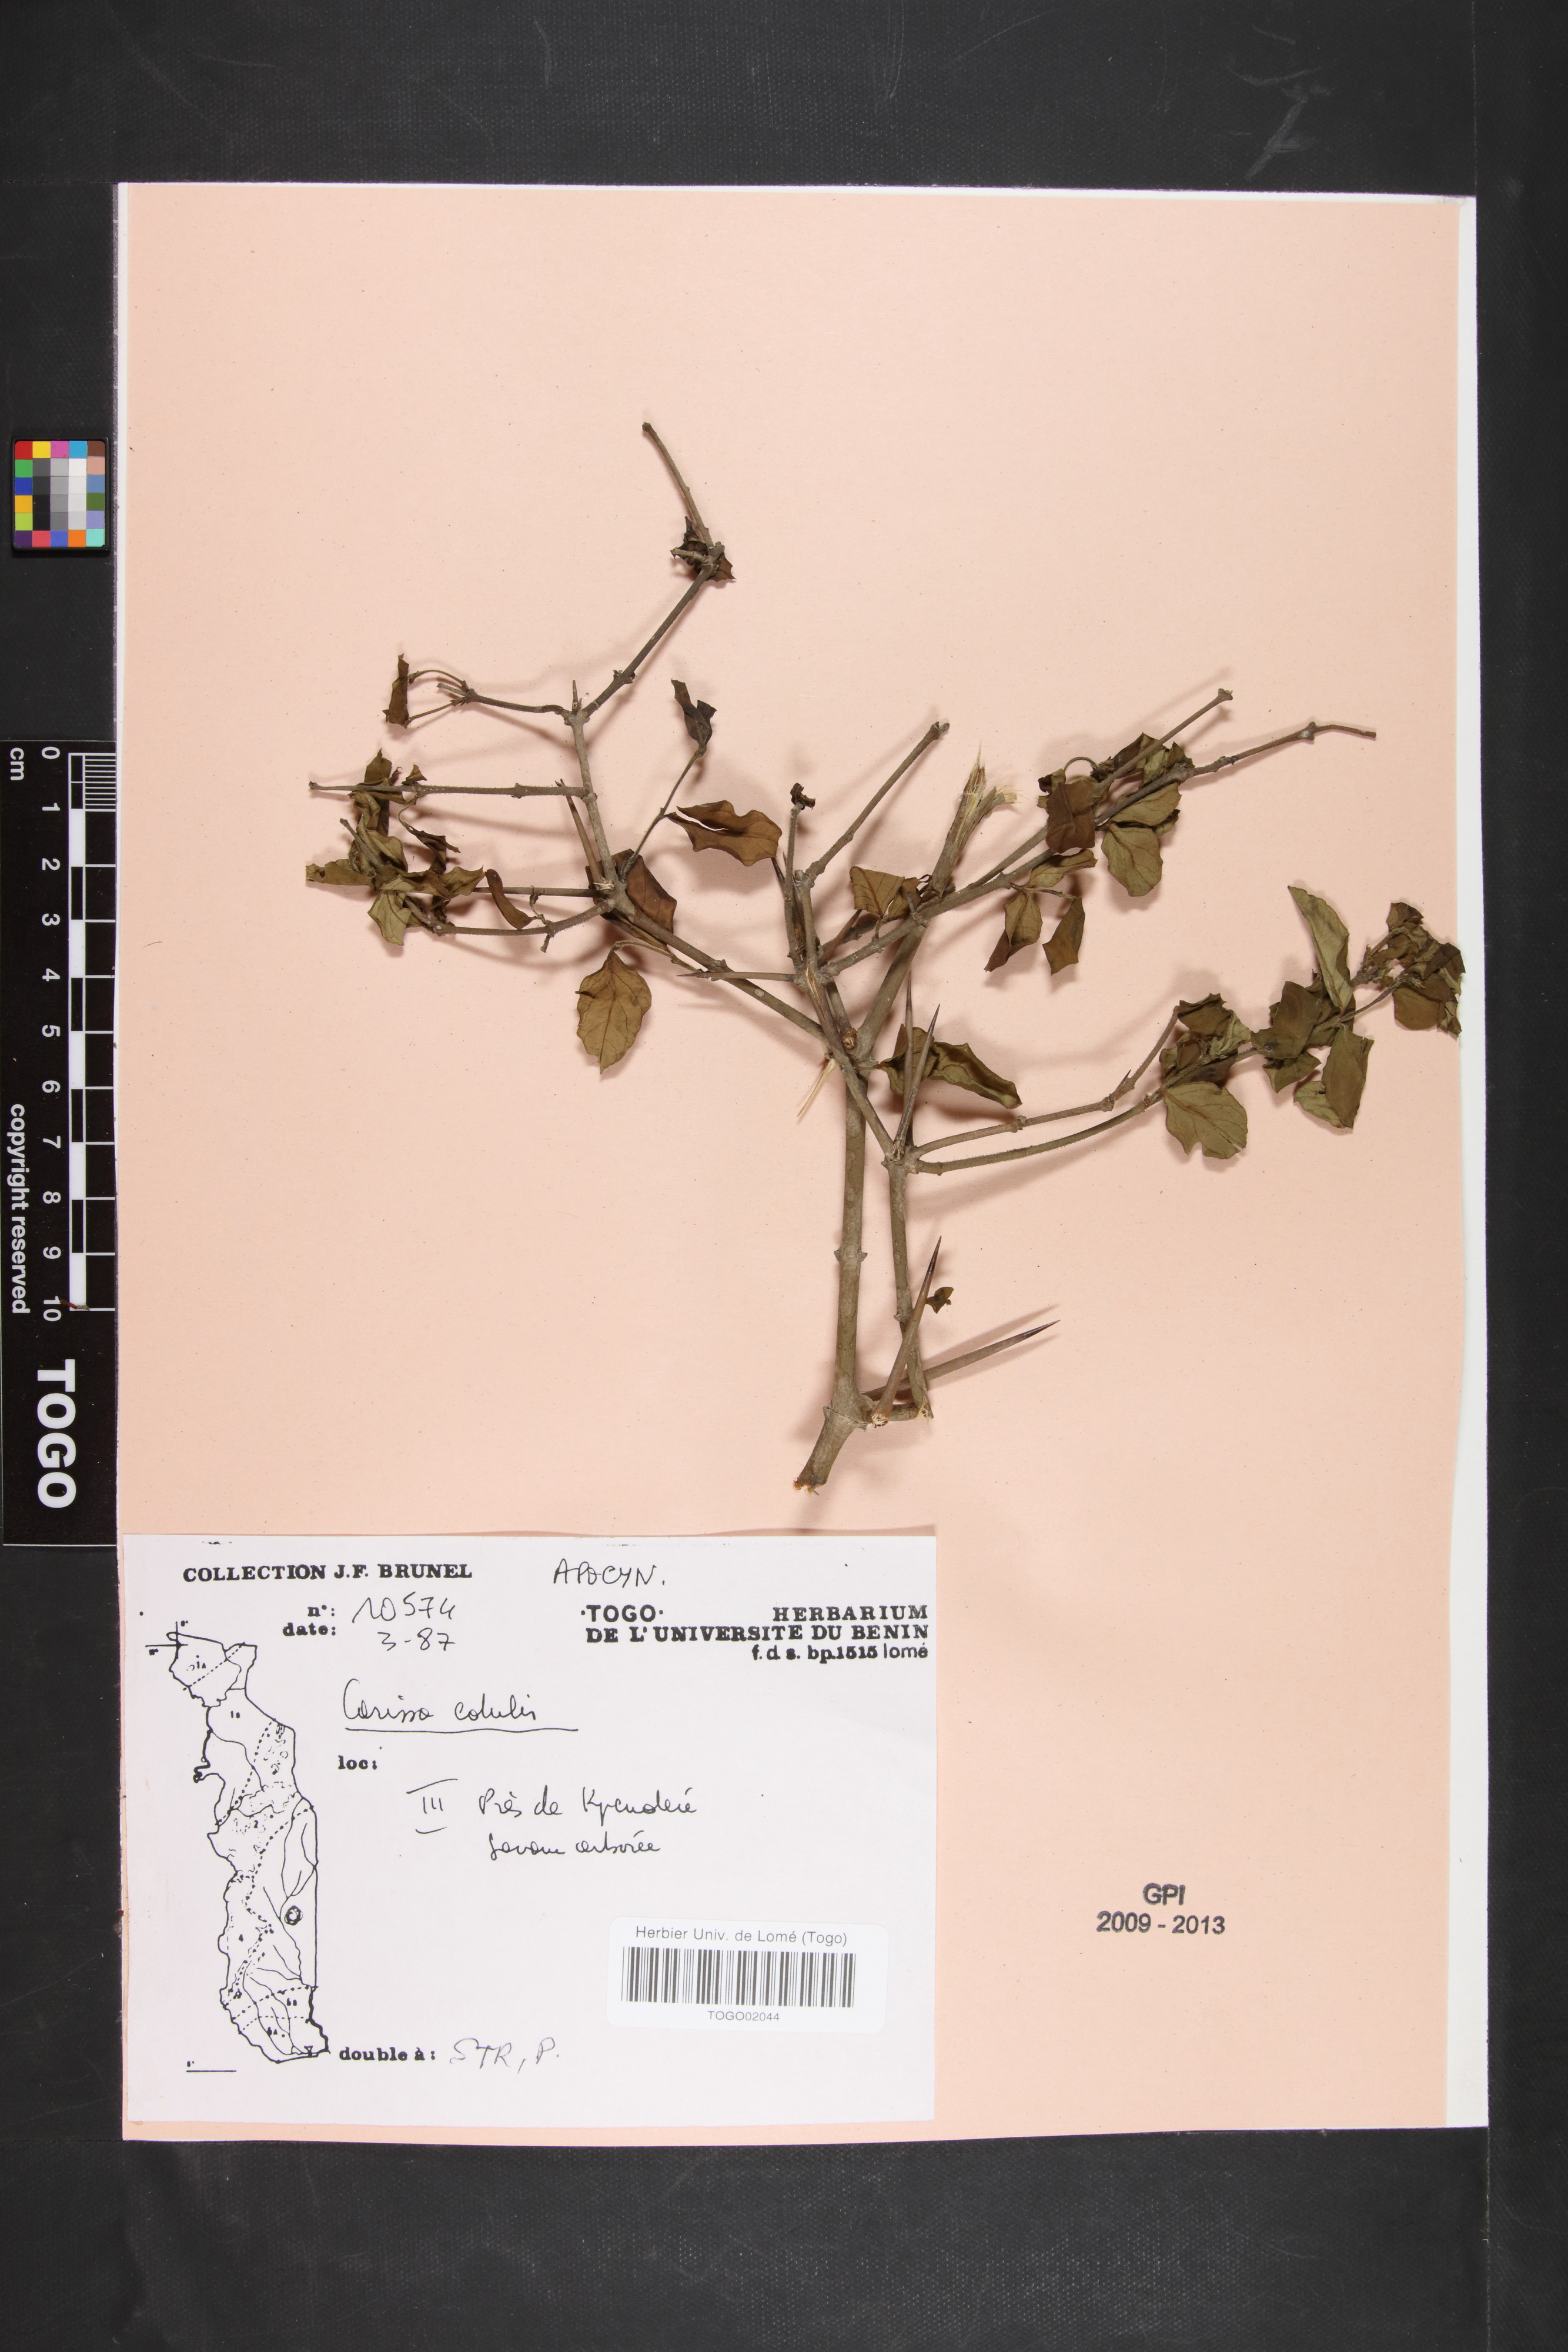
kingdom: Plantae
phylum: Tracheophyta
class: Magnoliopsida
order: Gentianales
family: Apocynaceae
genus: Carissa
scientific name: Carissa spinarum
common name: Egyptian carissa
